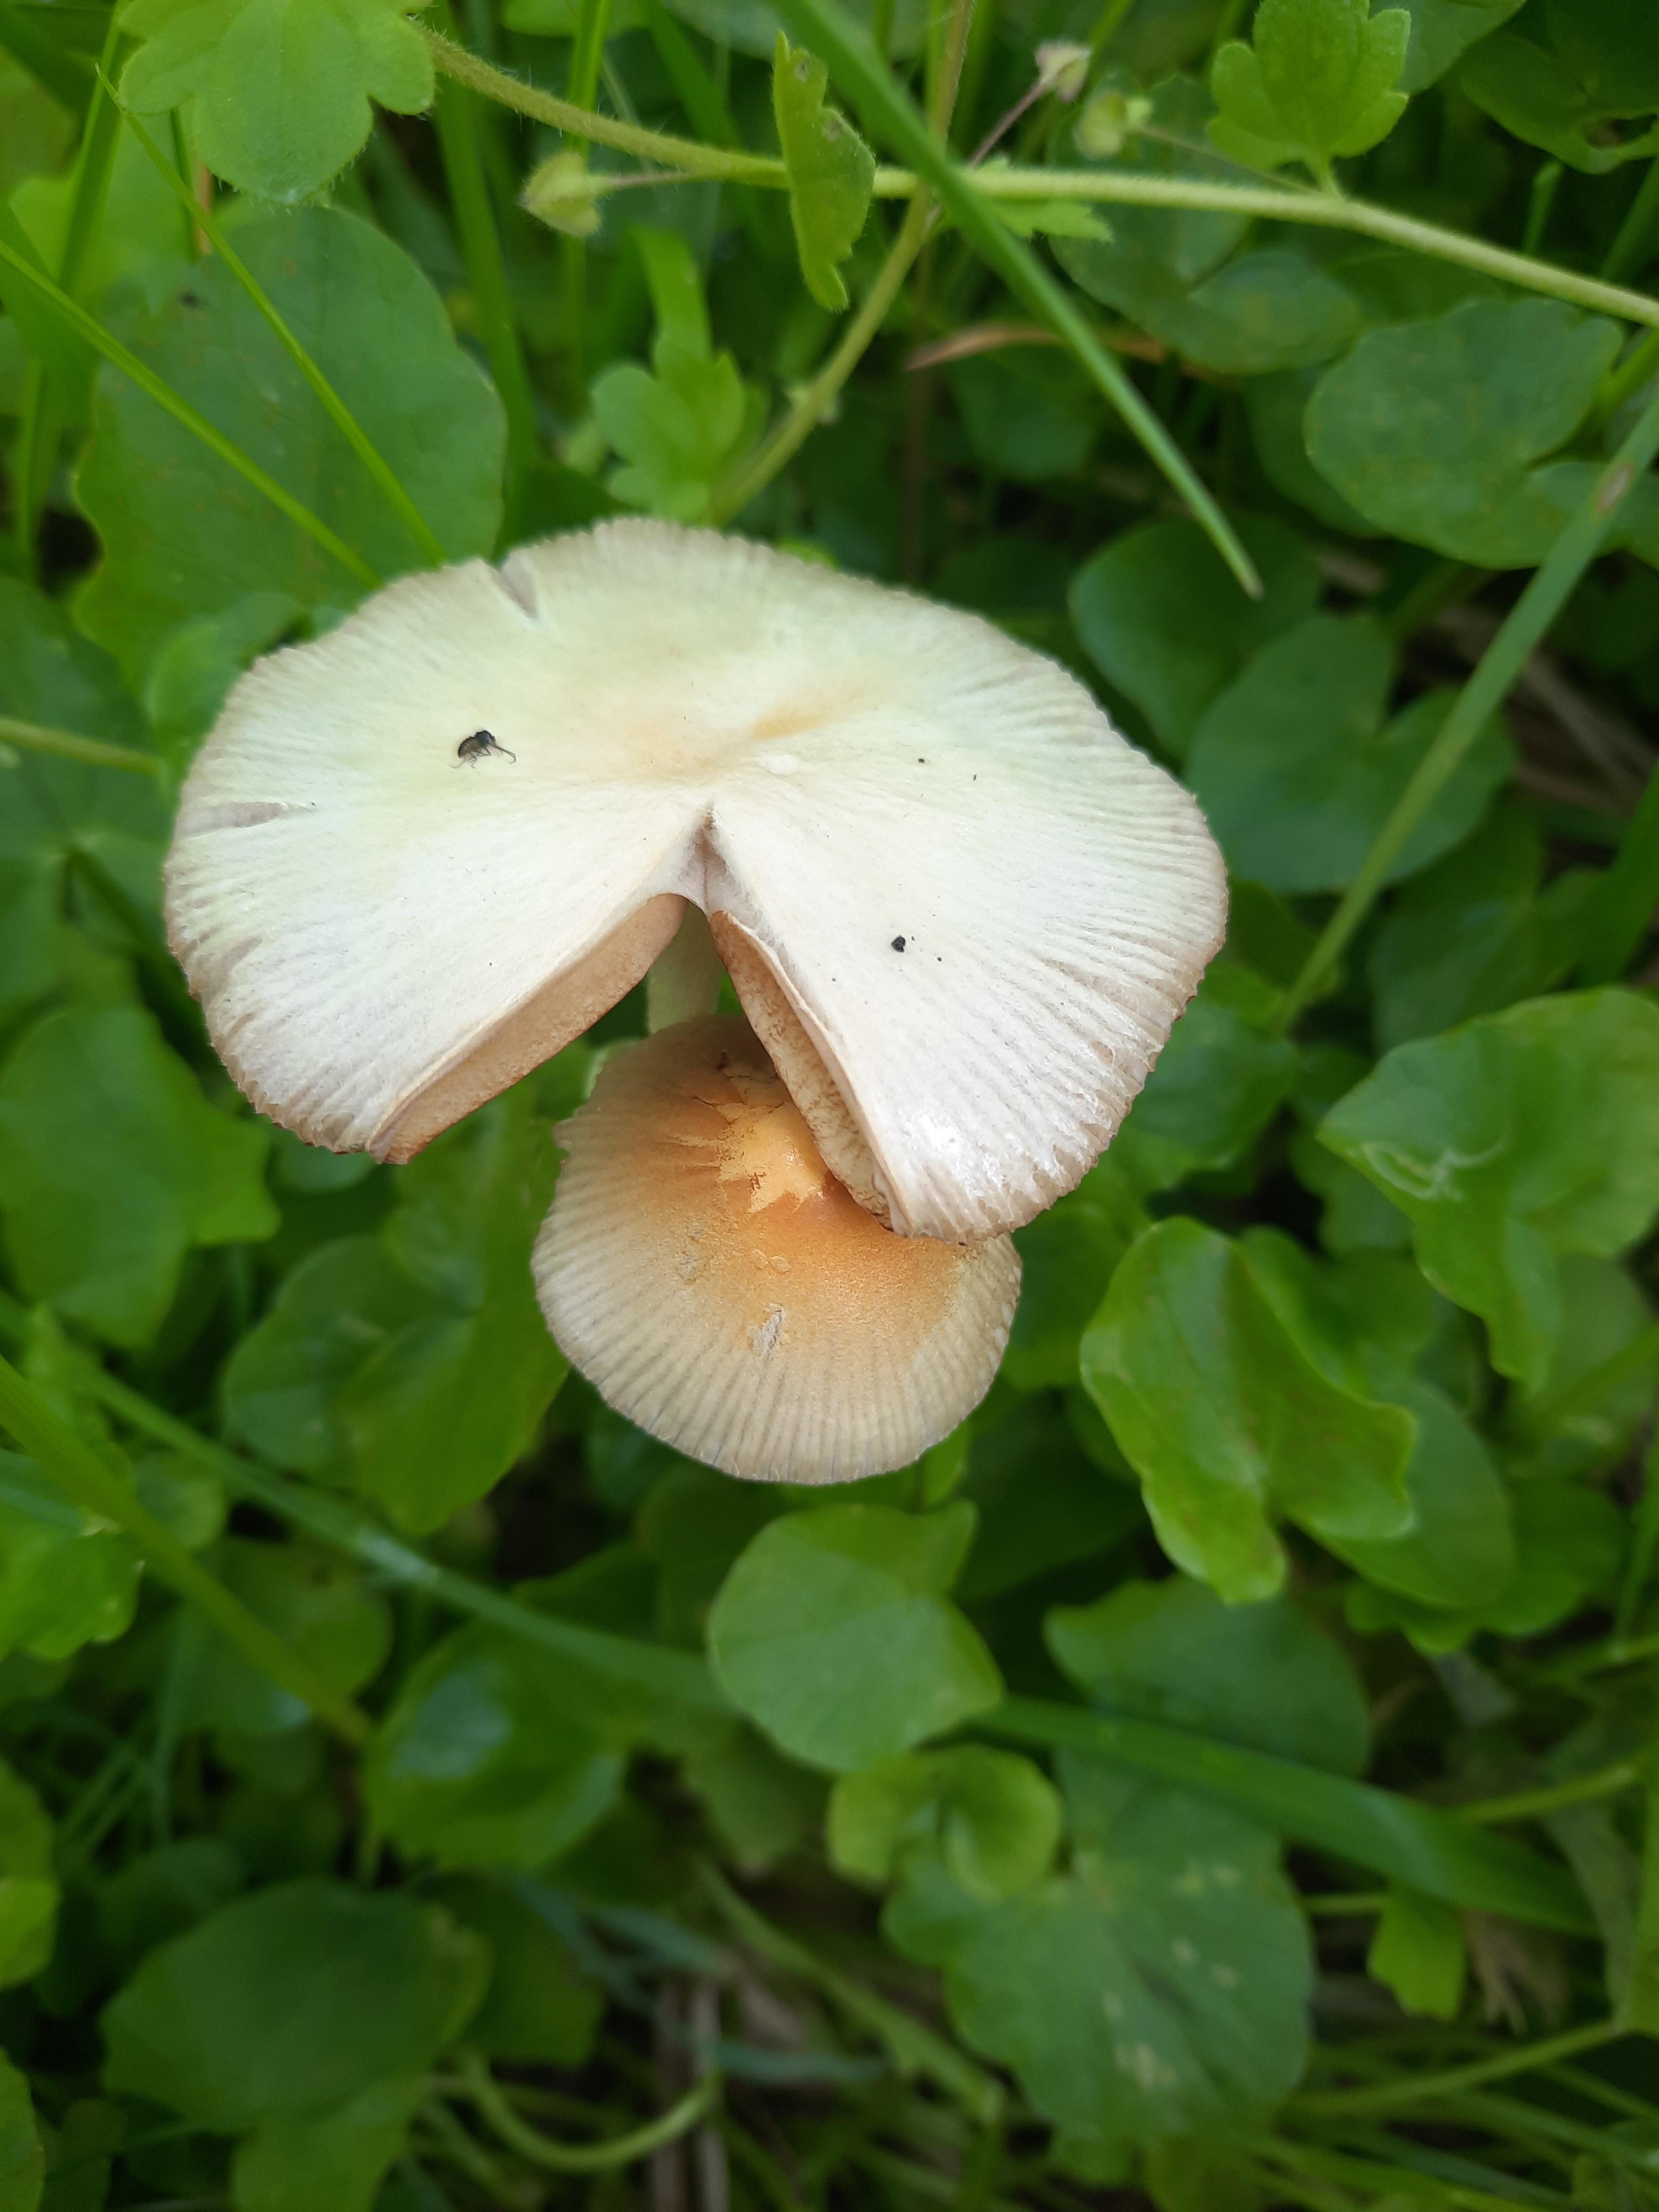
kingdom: Fungi
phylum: Basidiomycota
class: Agaricomycetes
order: Agaricales
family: Bolbitiaceae
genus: Bolbitius
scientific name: Bolbitius titubans
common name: almindelig gulhat
